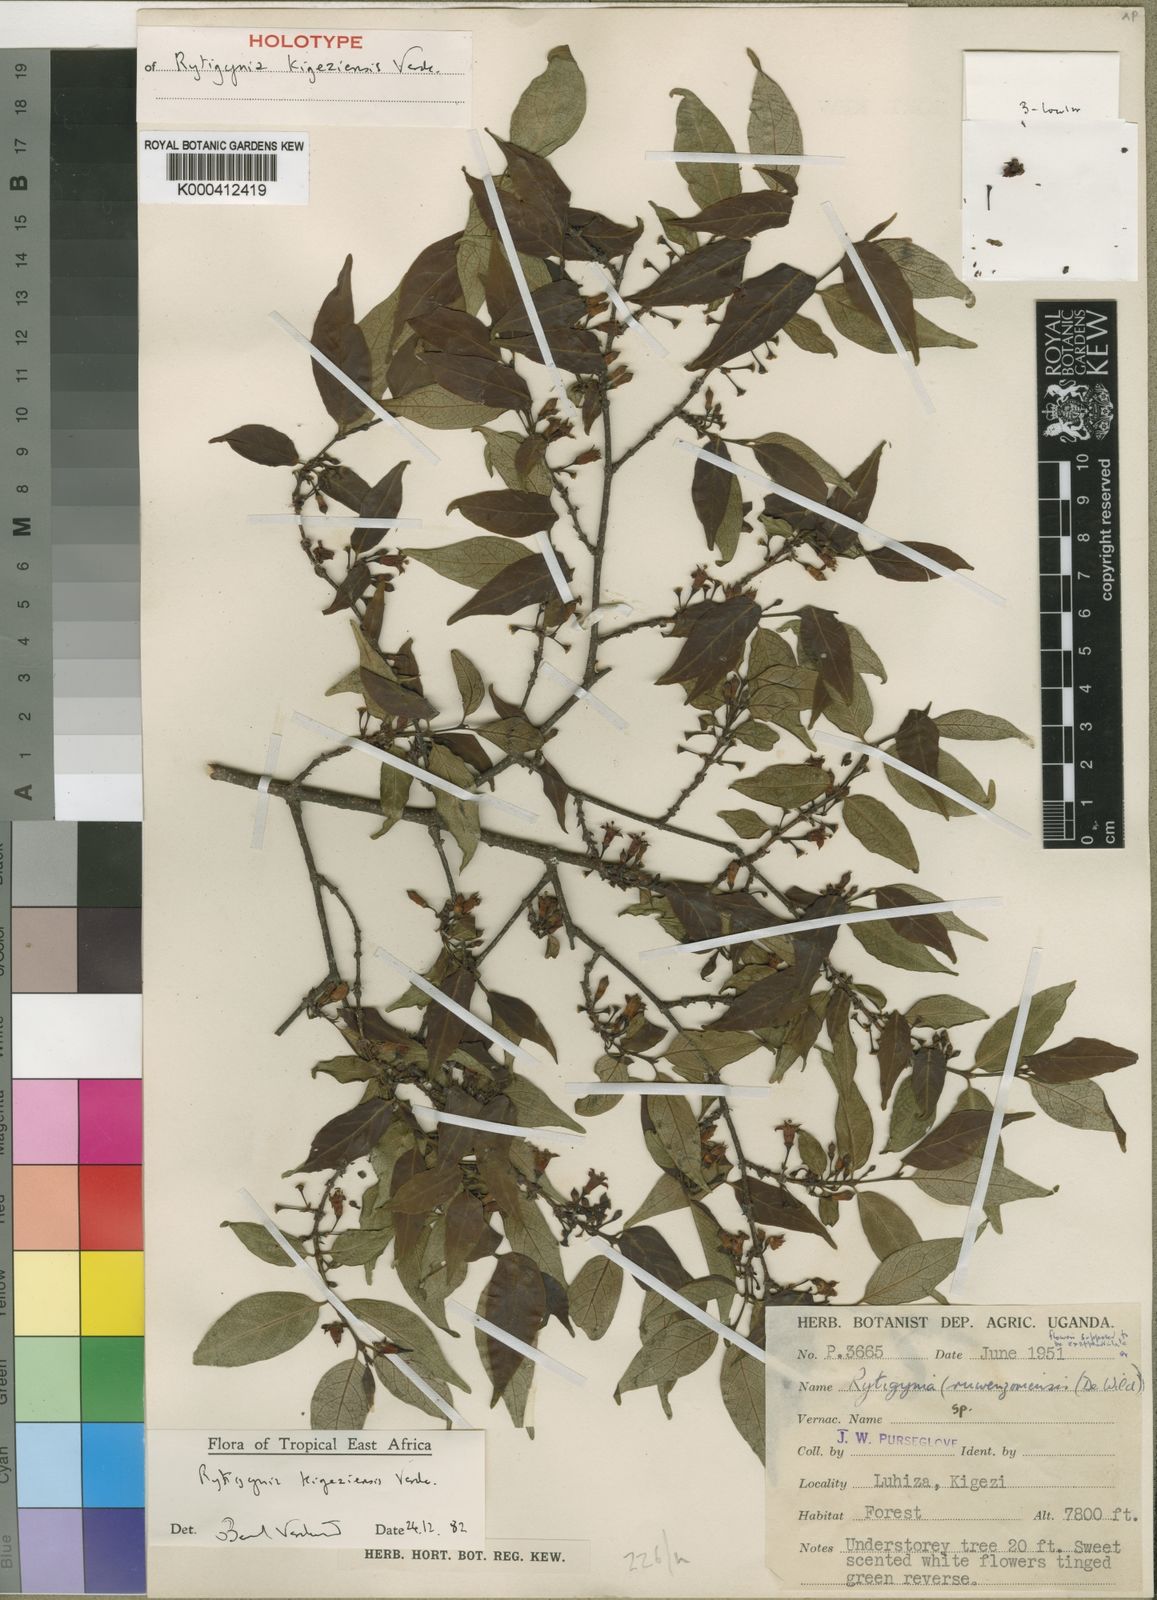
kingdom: Plantae
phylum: Tracheophyta
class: Magnoliopsida
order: Gentianales
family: Rubiaceae
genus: Rytigynia
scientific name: Rytigynia kigeziensis
